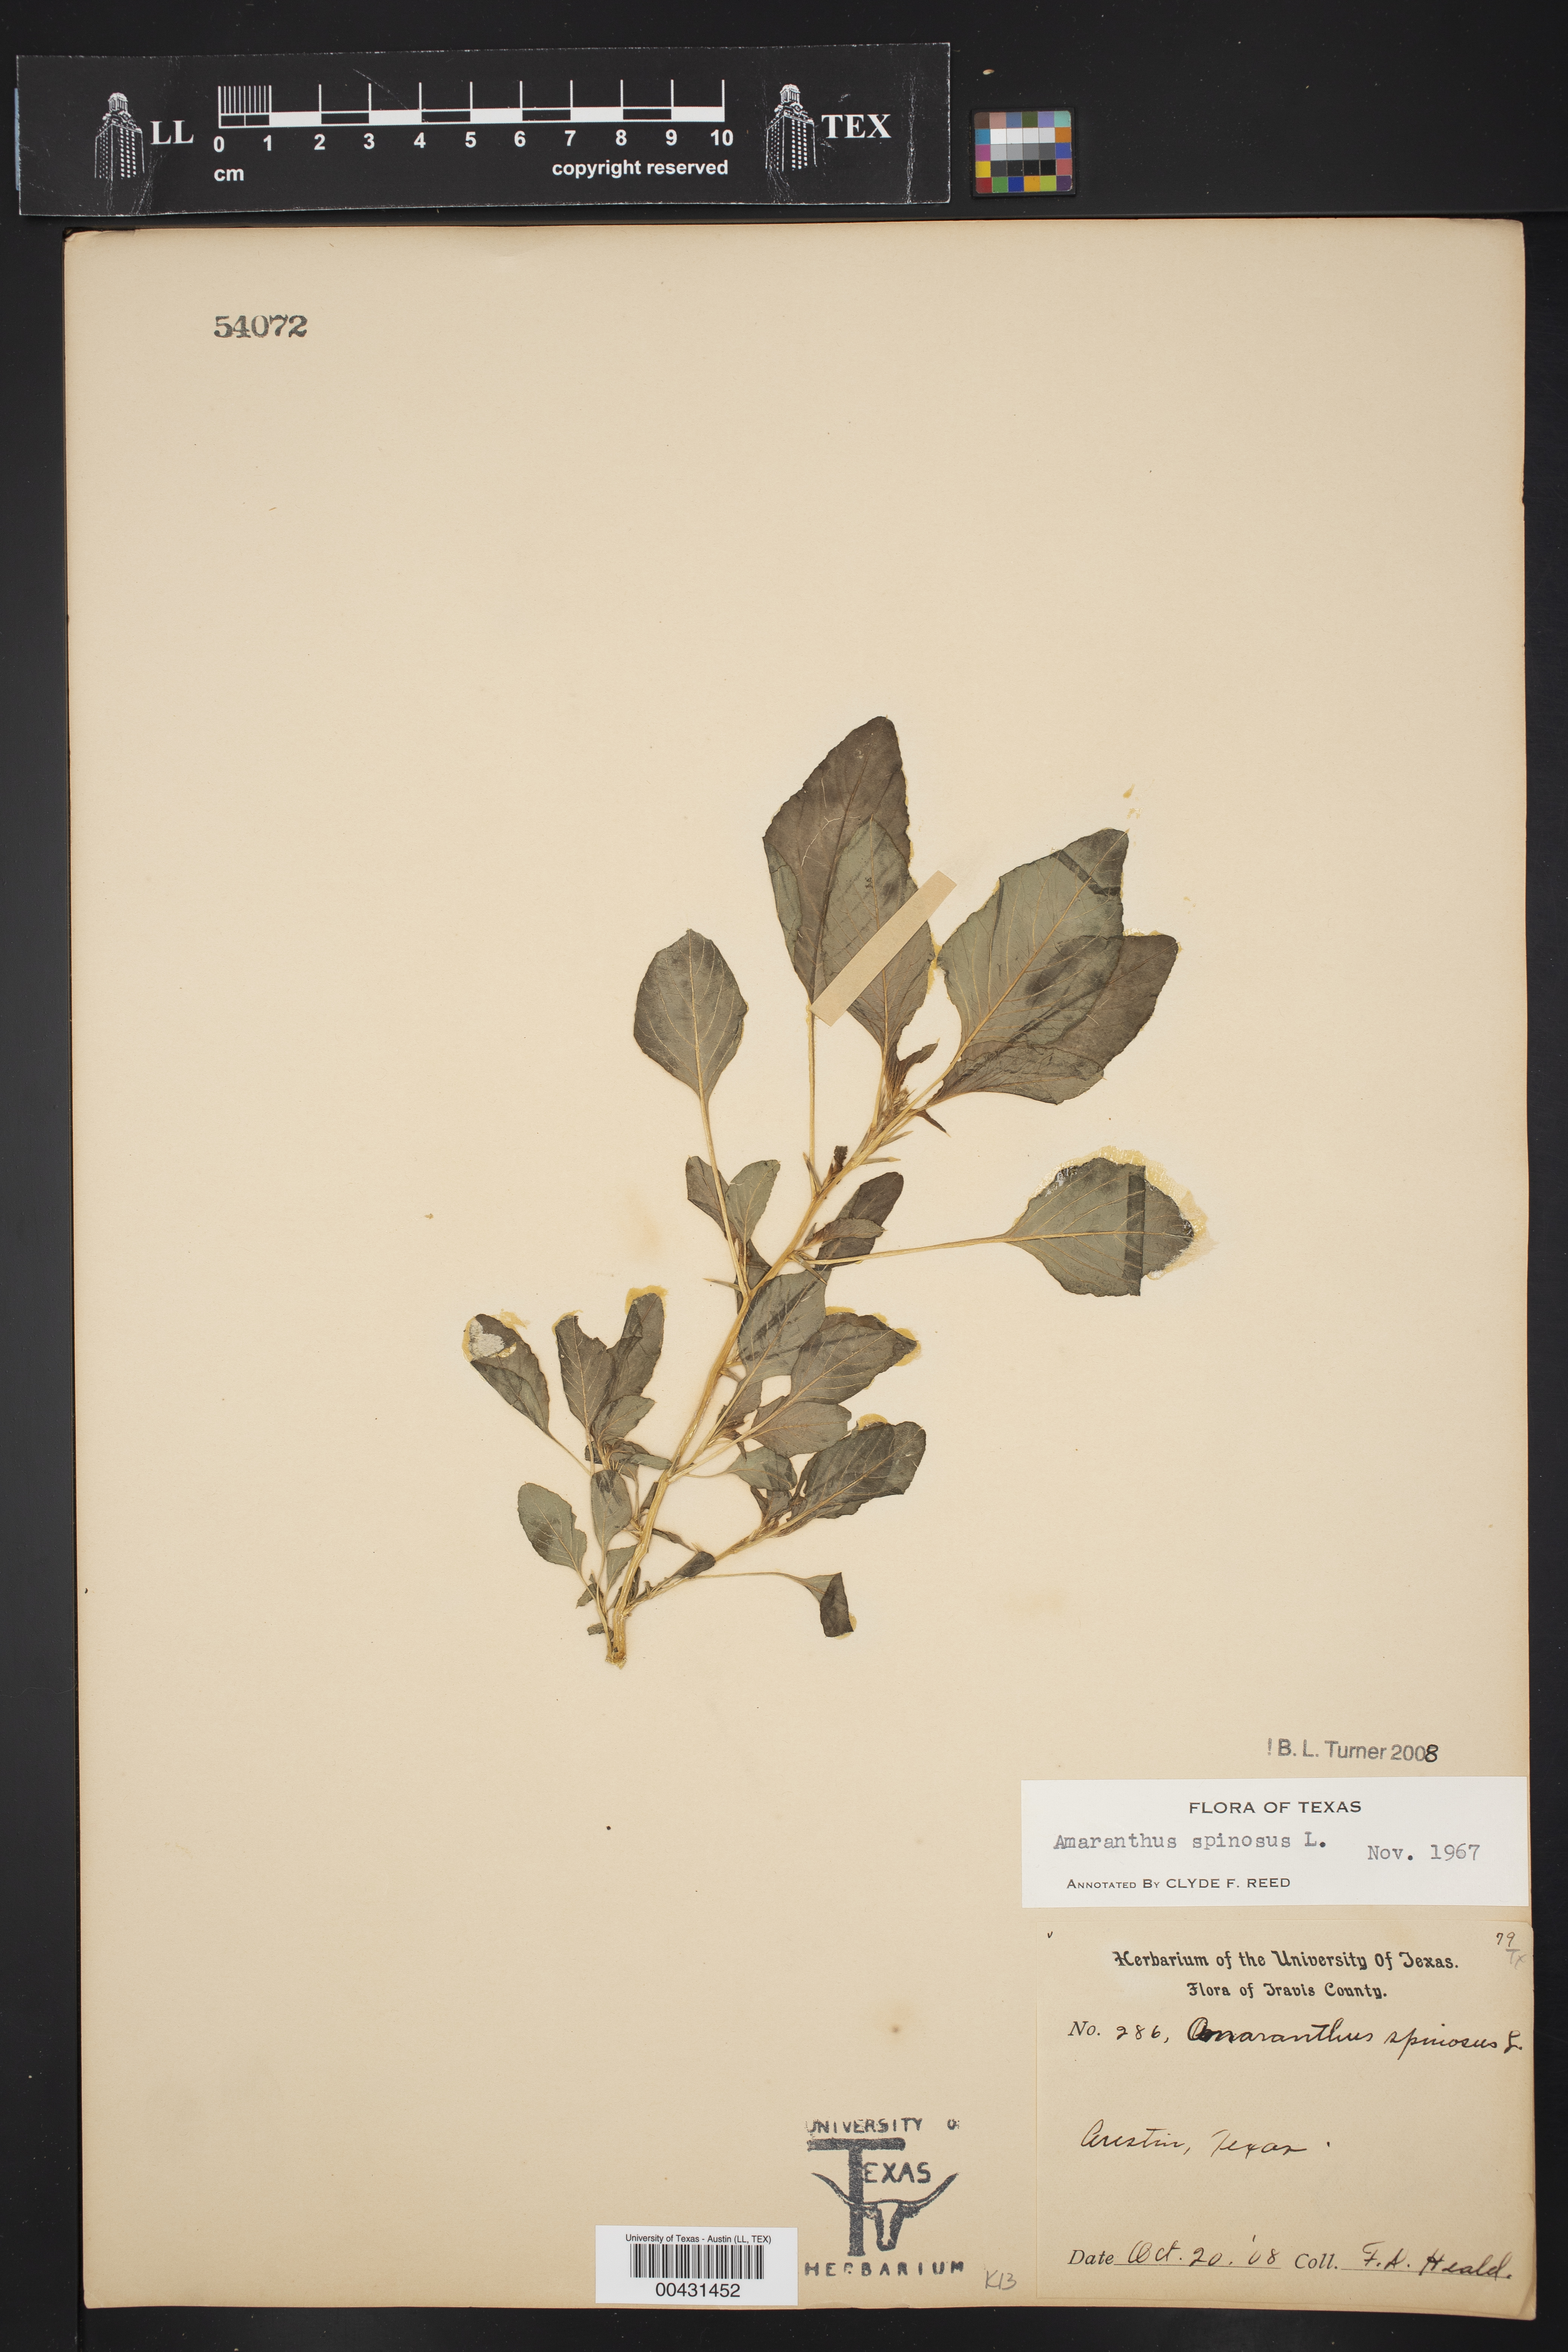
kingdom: Plantae
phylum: Tracheophyta
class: Magnoliopsida
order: Caryophyllales
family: Amaranthaceae
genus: Amaranthus
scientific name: Amaranthus spinosus
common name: Spiny amaranth
